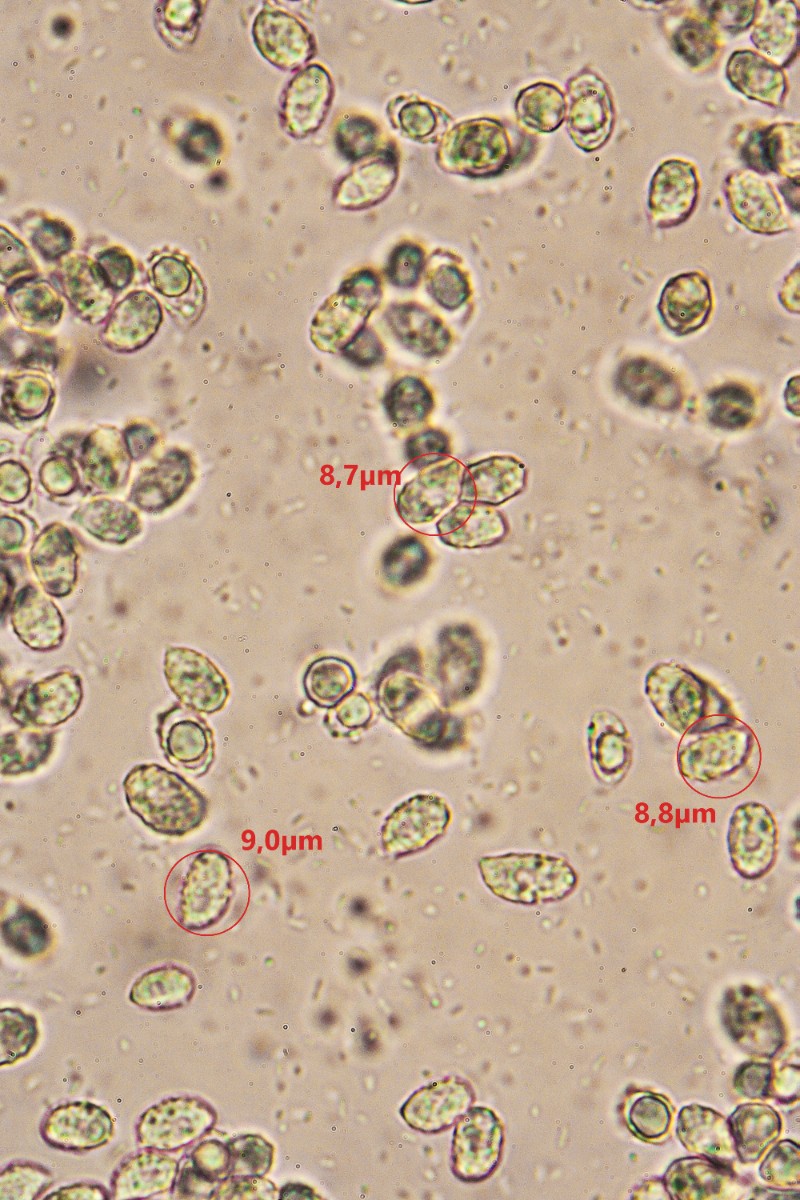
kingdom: Fungi
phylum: Basidiomycota
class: Agaricomycetes
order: Agaricales
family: Tricholomataceae
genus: Melanoleuca
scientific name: Melanoleuca
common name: munkehat
